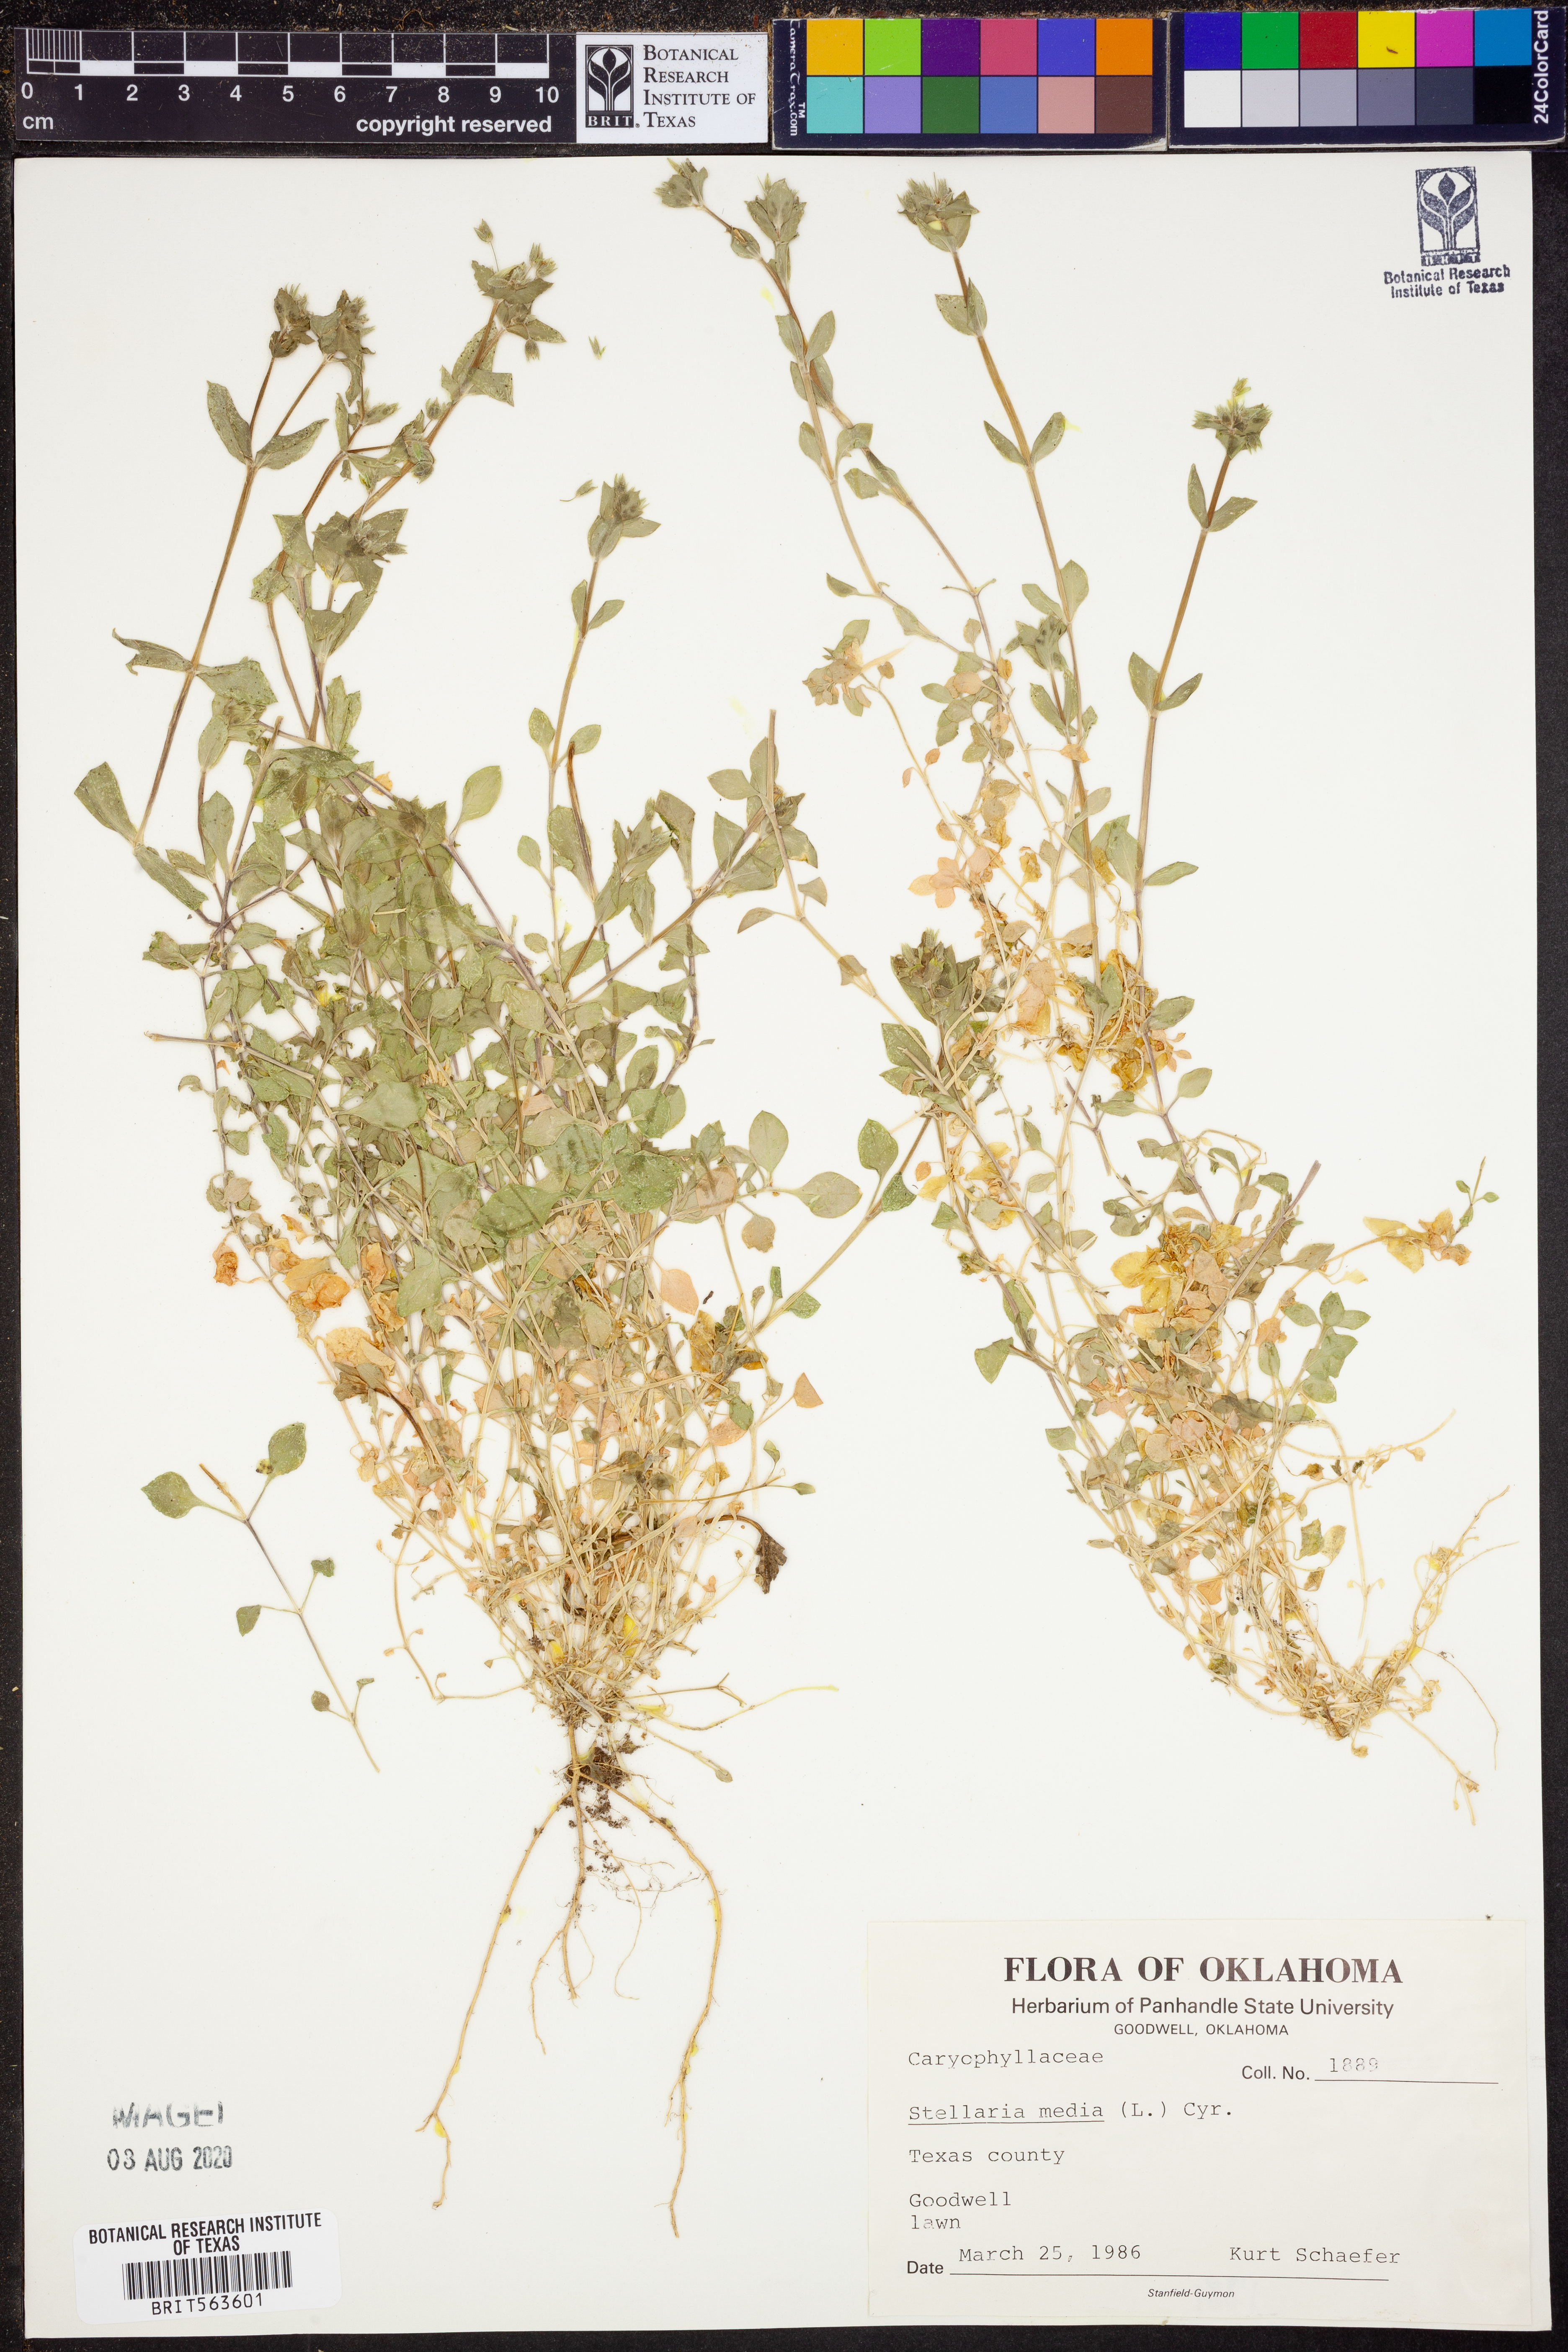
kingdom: Plantae
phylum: Tracheophyta
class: Magnoliopsida
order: Caryophyllales
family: Caryophyllaceae
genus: Stellaria
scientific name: Stellaria media
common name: Common chickweed
